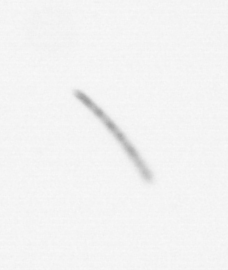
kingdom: Chromista
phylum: Ochrophyta
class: Bacillariophyceae
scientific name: Bacillariophyceae
